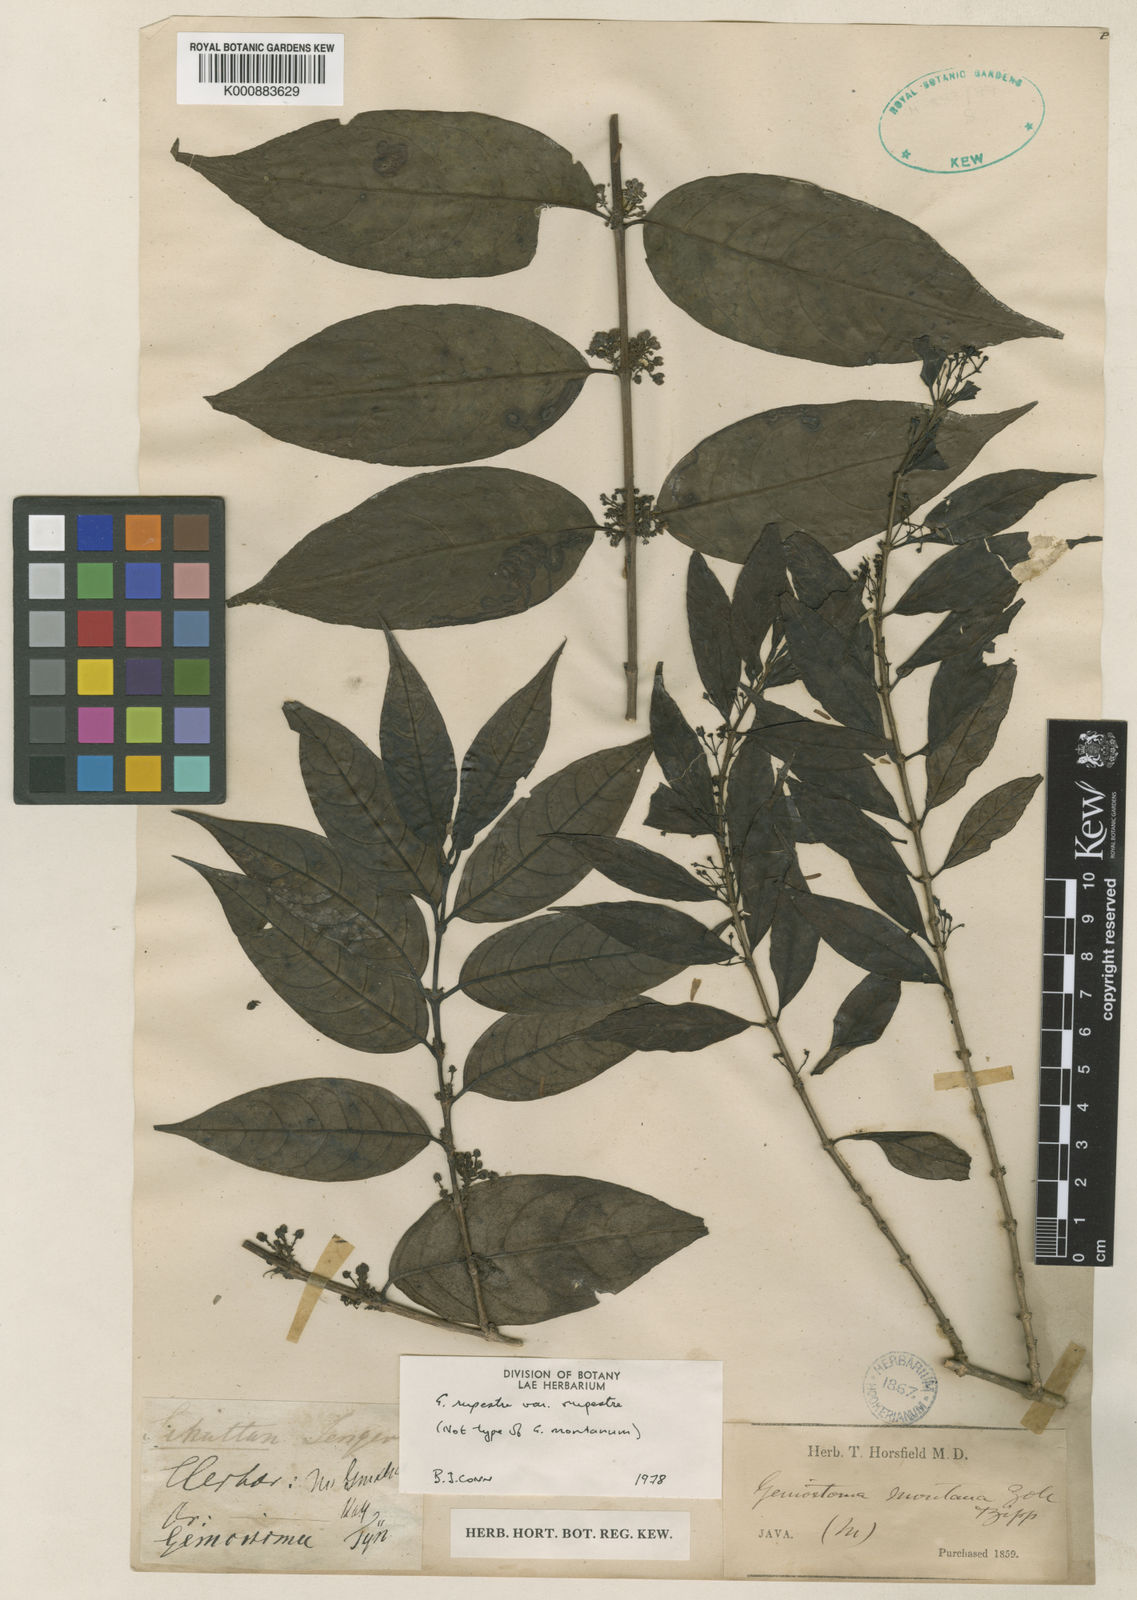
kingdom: Plantae
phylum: Tracheophyta
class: Magnoliopsida
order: Gentianales
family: Loganiaceae
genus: Geniostoma
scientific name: Geniostoma rupestre
